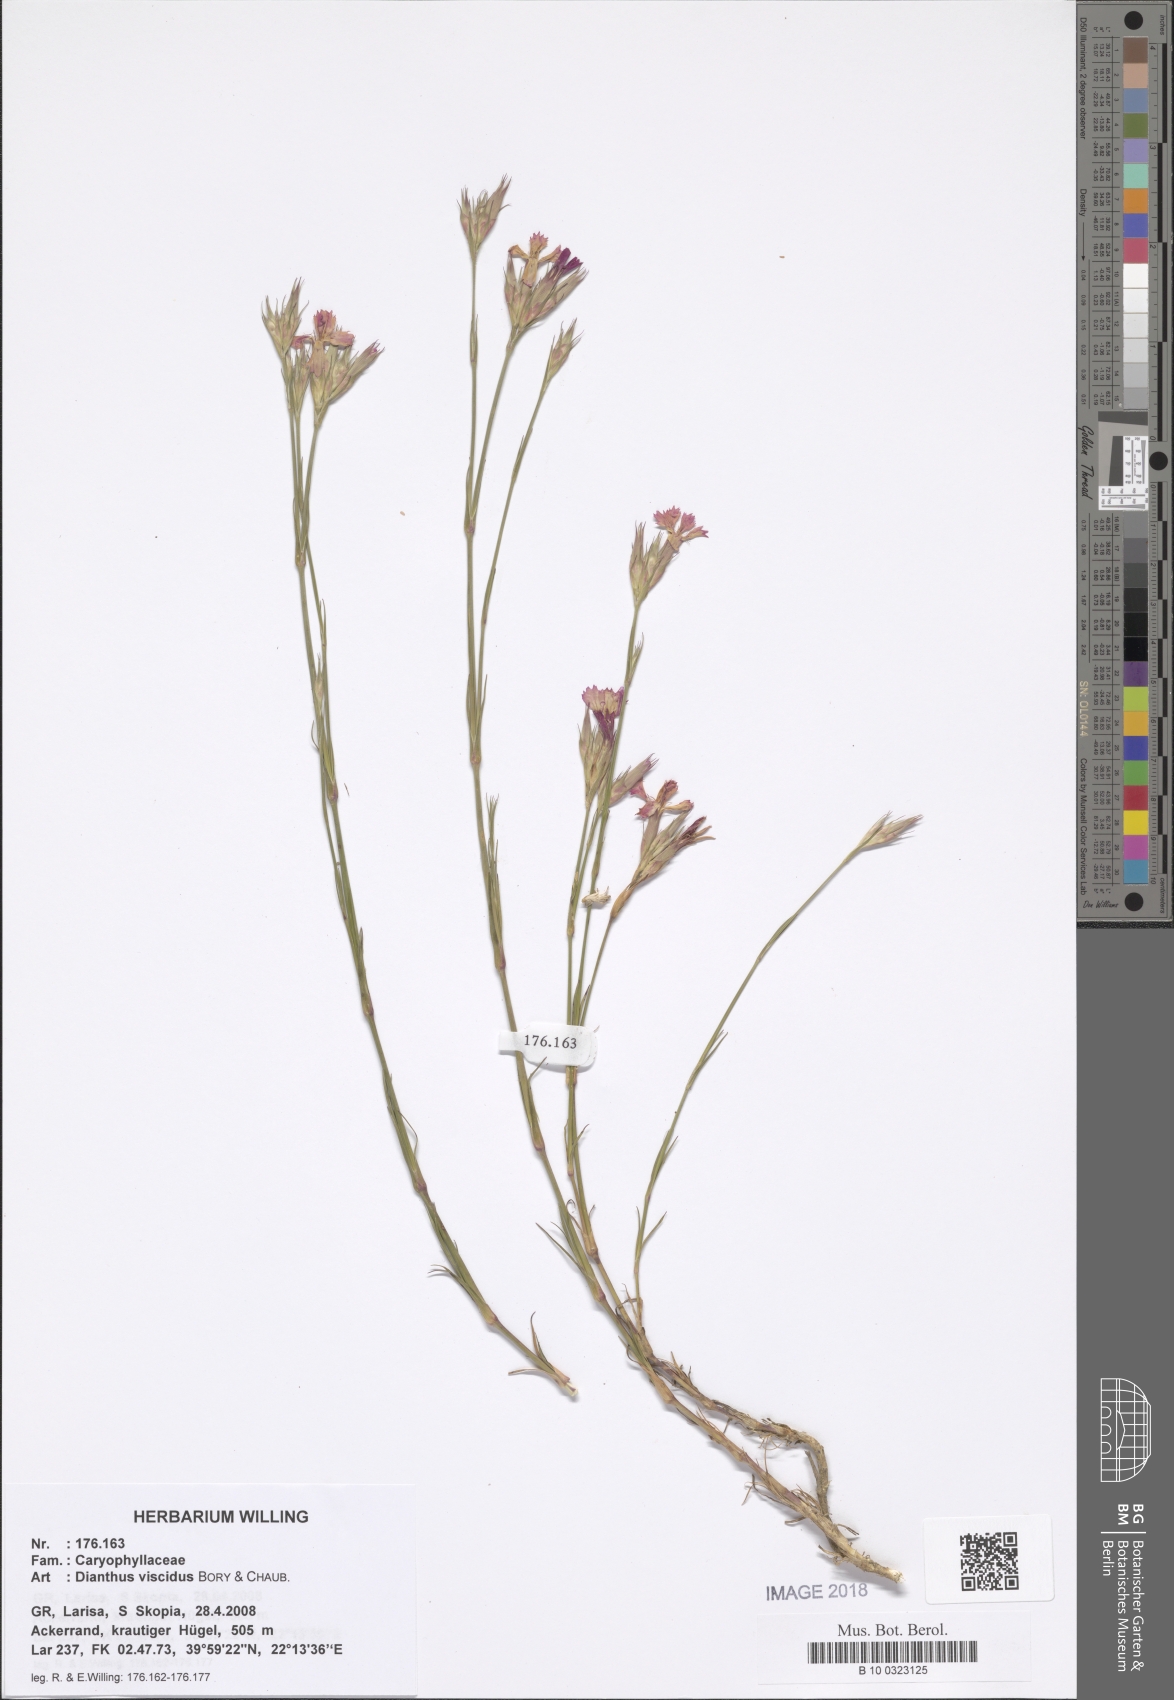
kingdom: Plantae
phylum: Tracheophyta
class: Magnoliopsida
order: Caryophyllales
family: Caryophyllaceae
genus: Dianthus
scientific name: Dianthus viscidus
